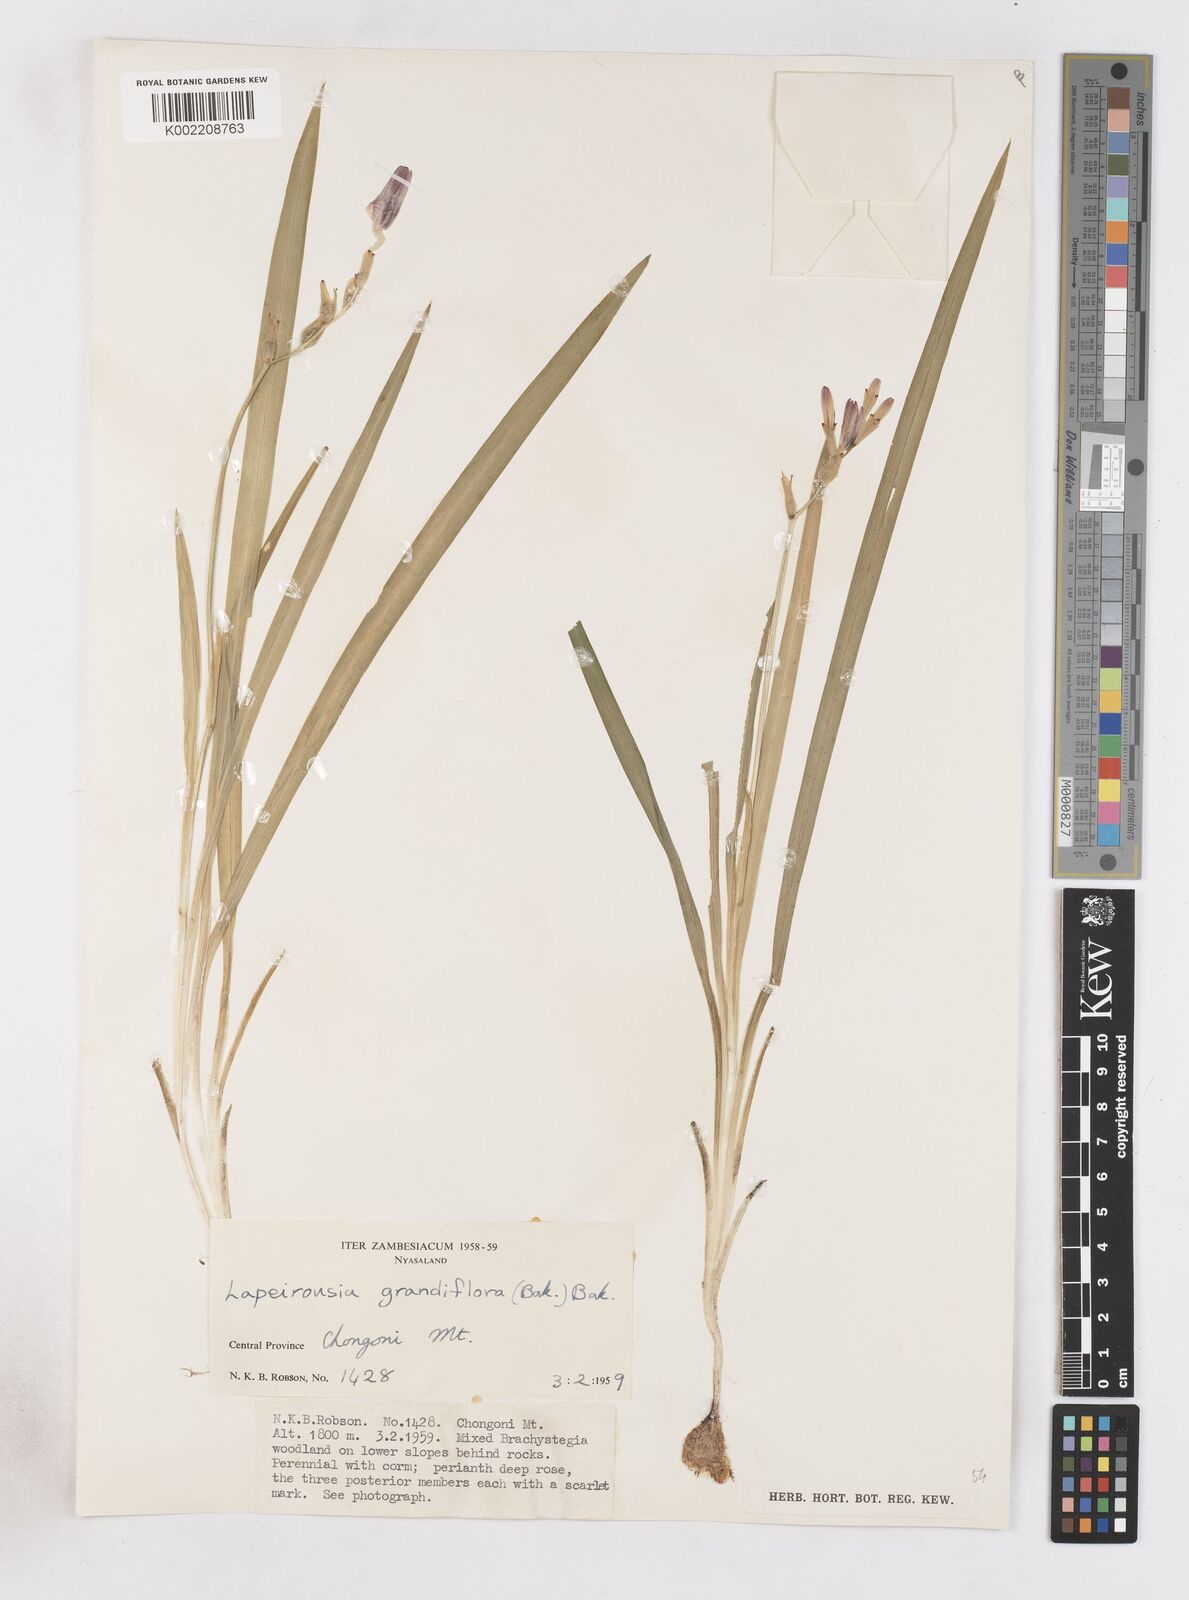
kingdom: Plantae
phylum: Tracheophyta
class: Liliopsida
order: Asparagales
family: Iridaceae
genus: Freesia
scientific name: Freesia grandiflora
